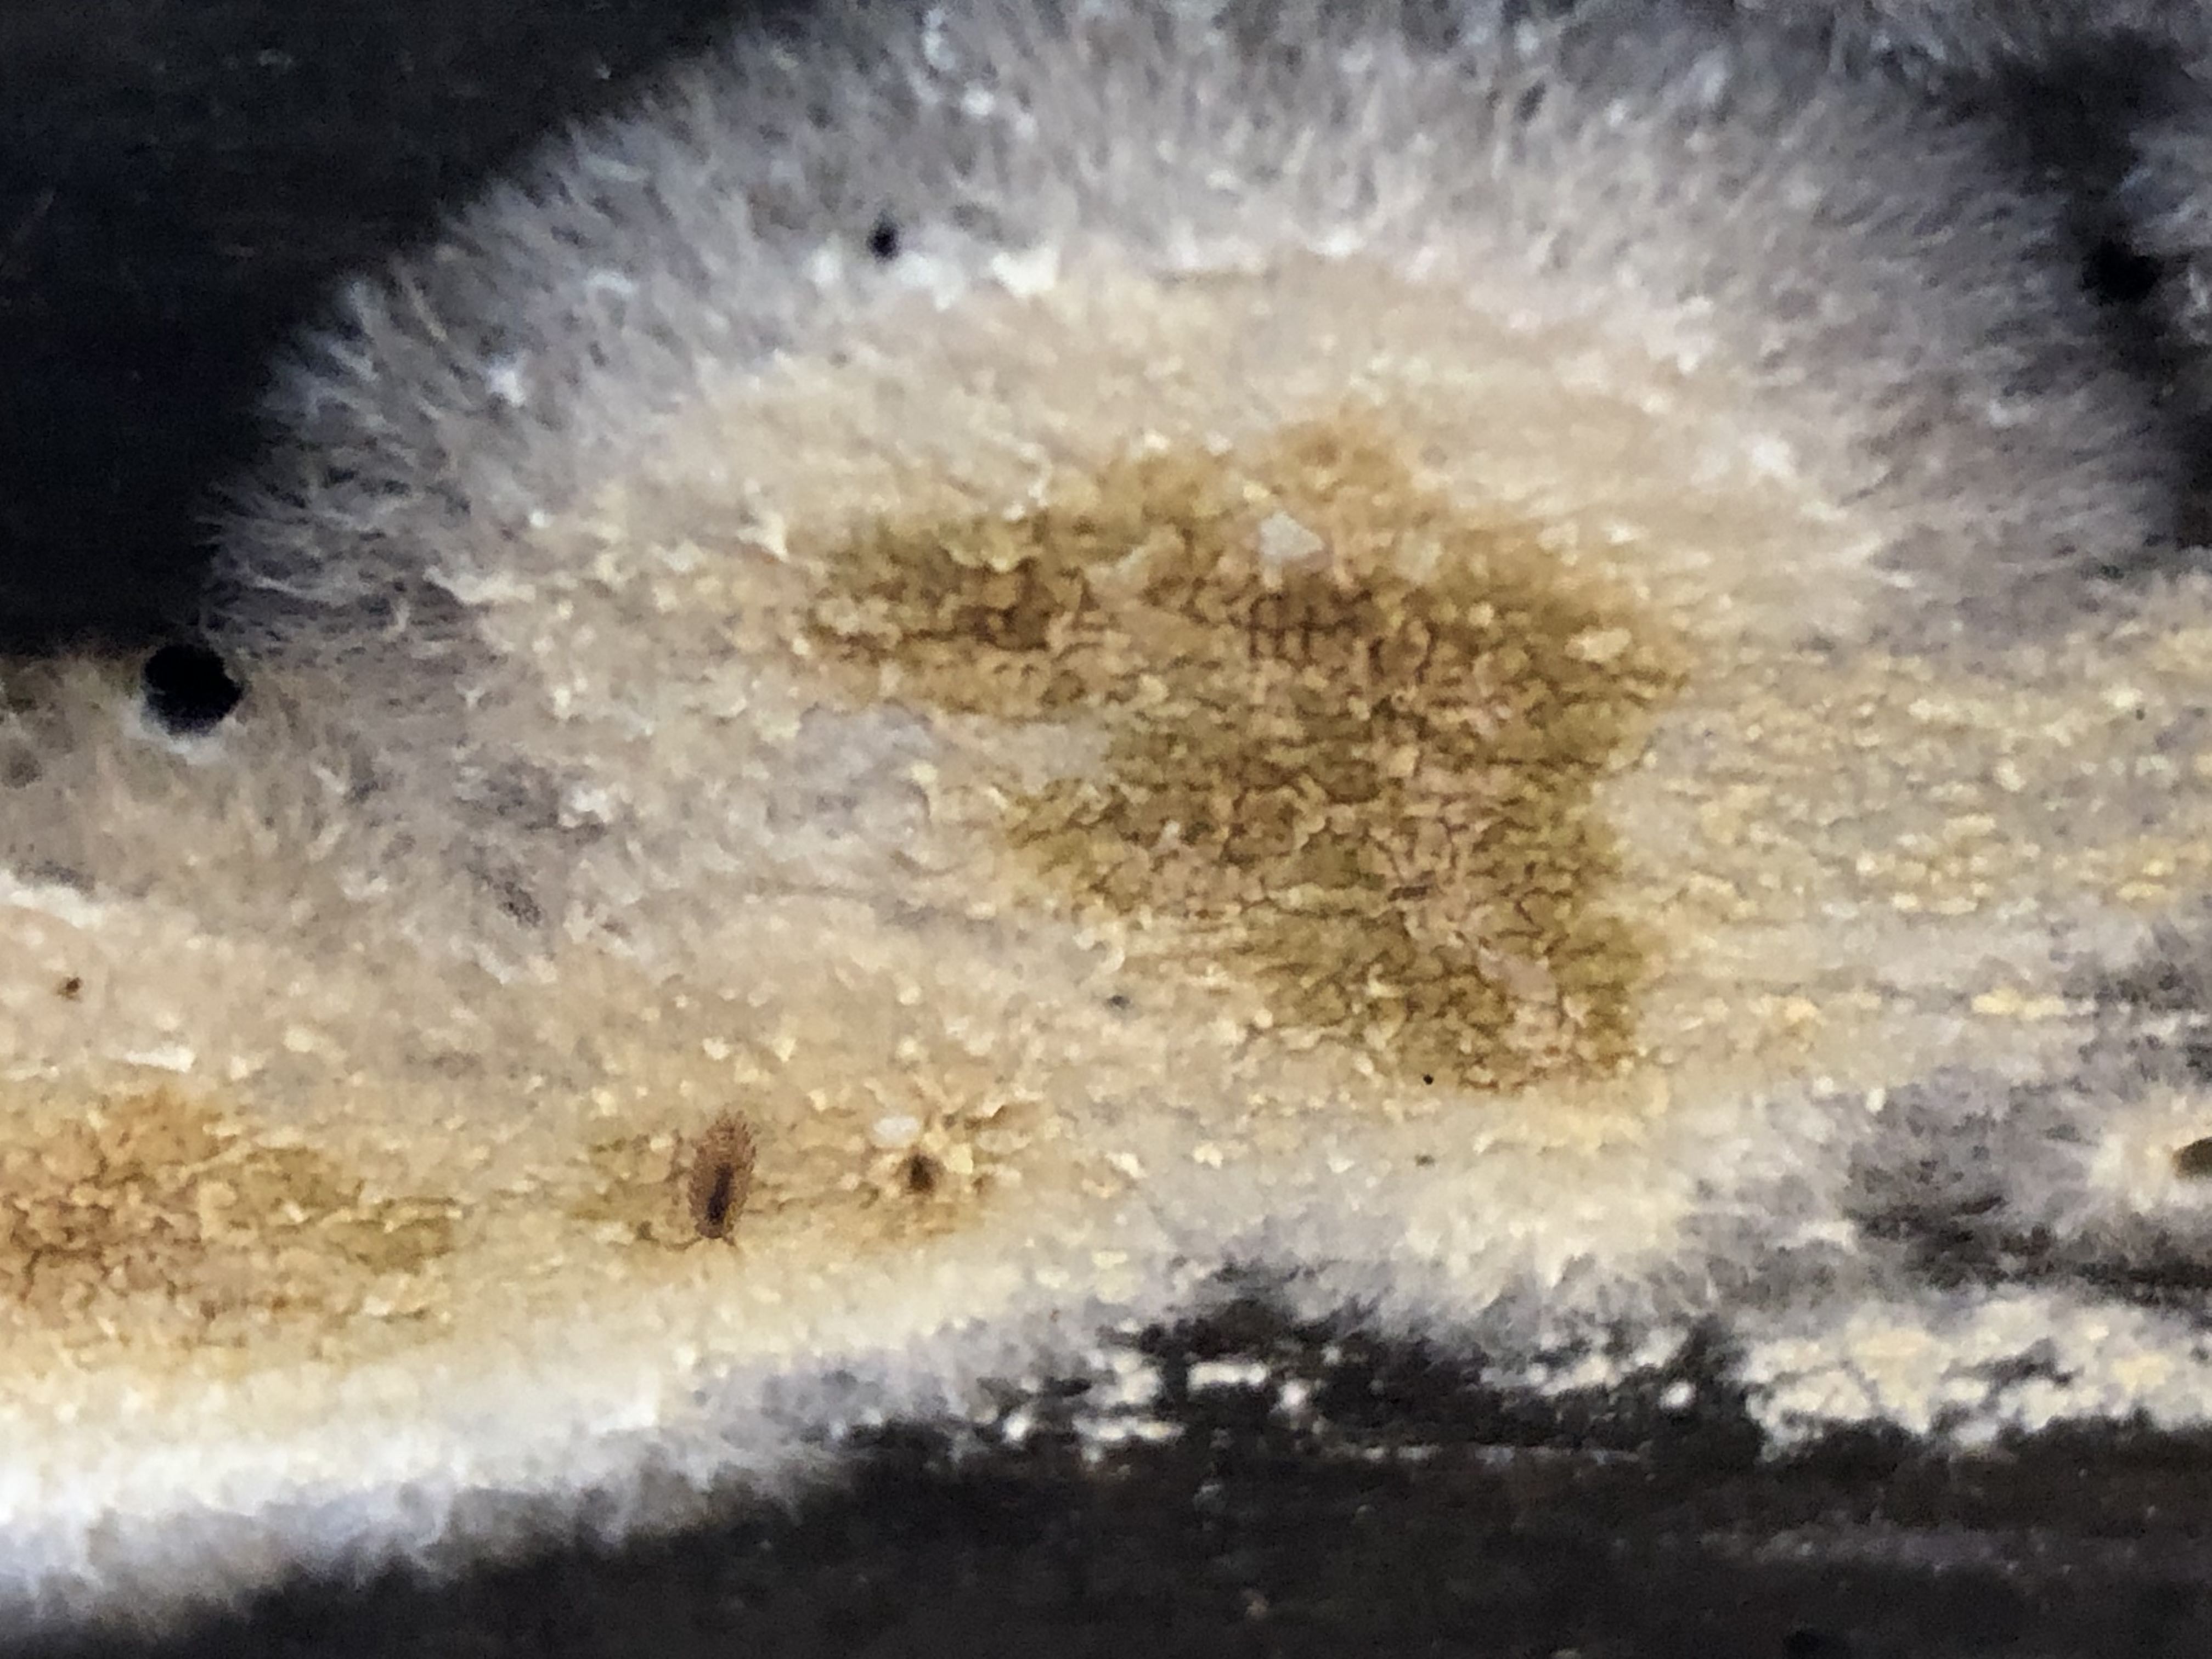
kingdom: Fungi
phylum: Basidiomycota
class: Agaricomycetes
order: Boletales
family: Coniophoraceae
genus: Coniophora
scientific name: Coniophora puteana
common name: gul tømmersvamp
